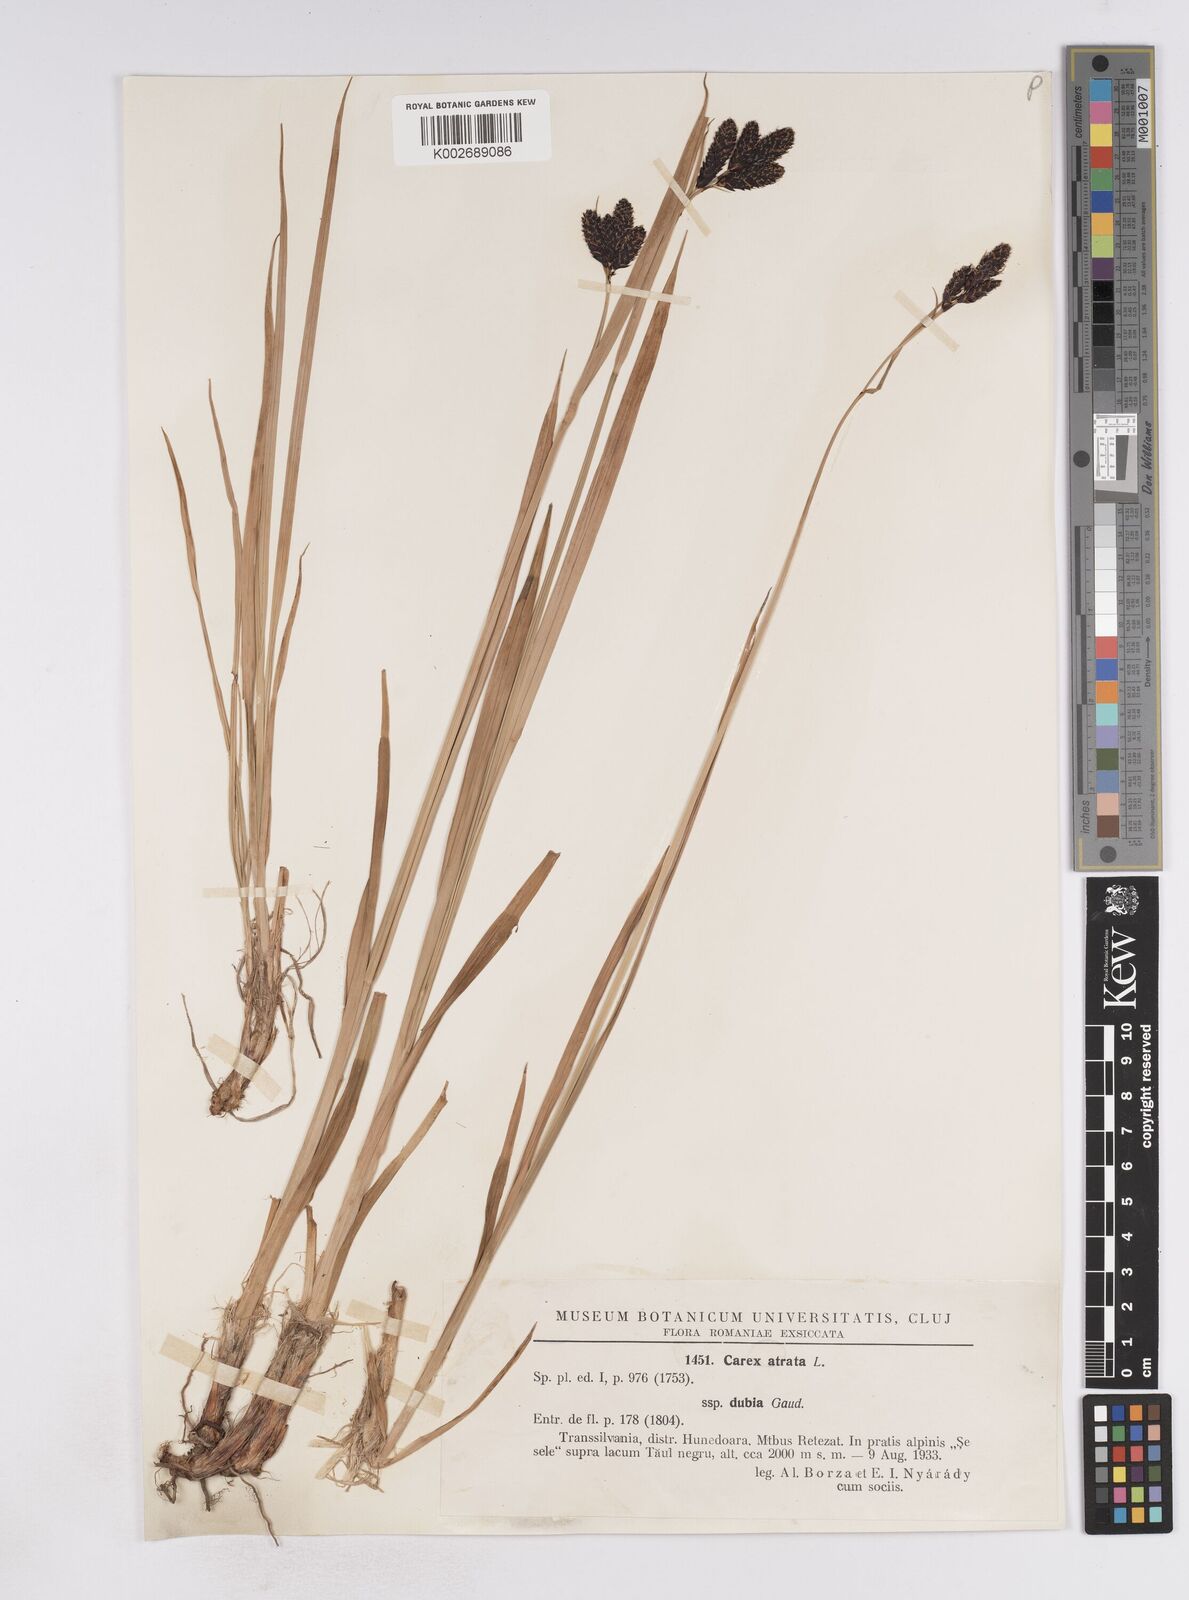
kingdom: Plantae
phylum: Tracheophyta
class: Liliopsida
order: Poales
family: Cyperaceae
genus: Carex
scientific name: Carex atrata
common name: Black alpine sedge
